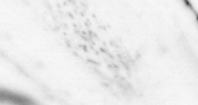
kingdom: Animalia
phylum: Chordata
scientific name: Chordata
